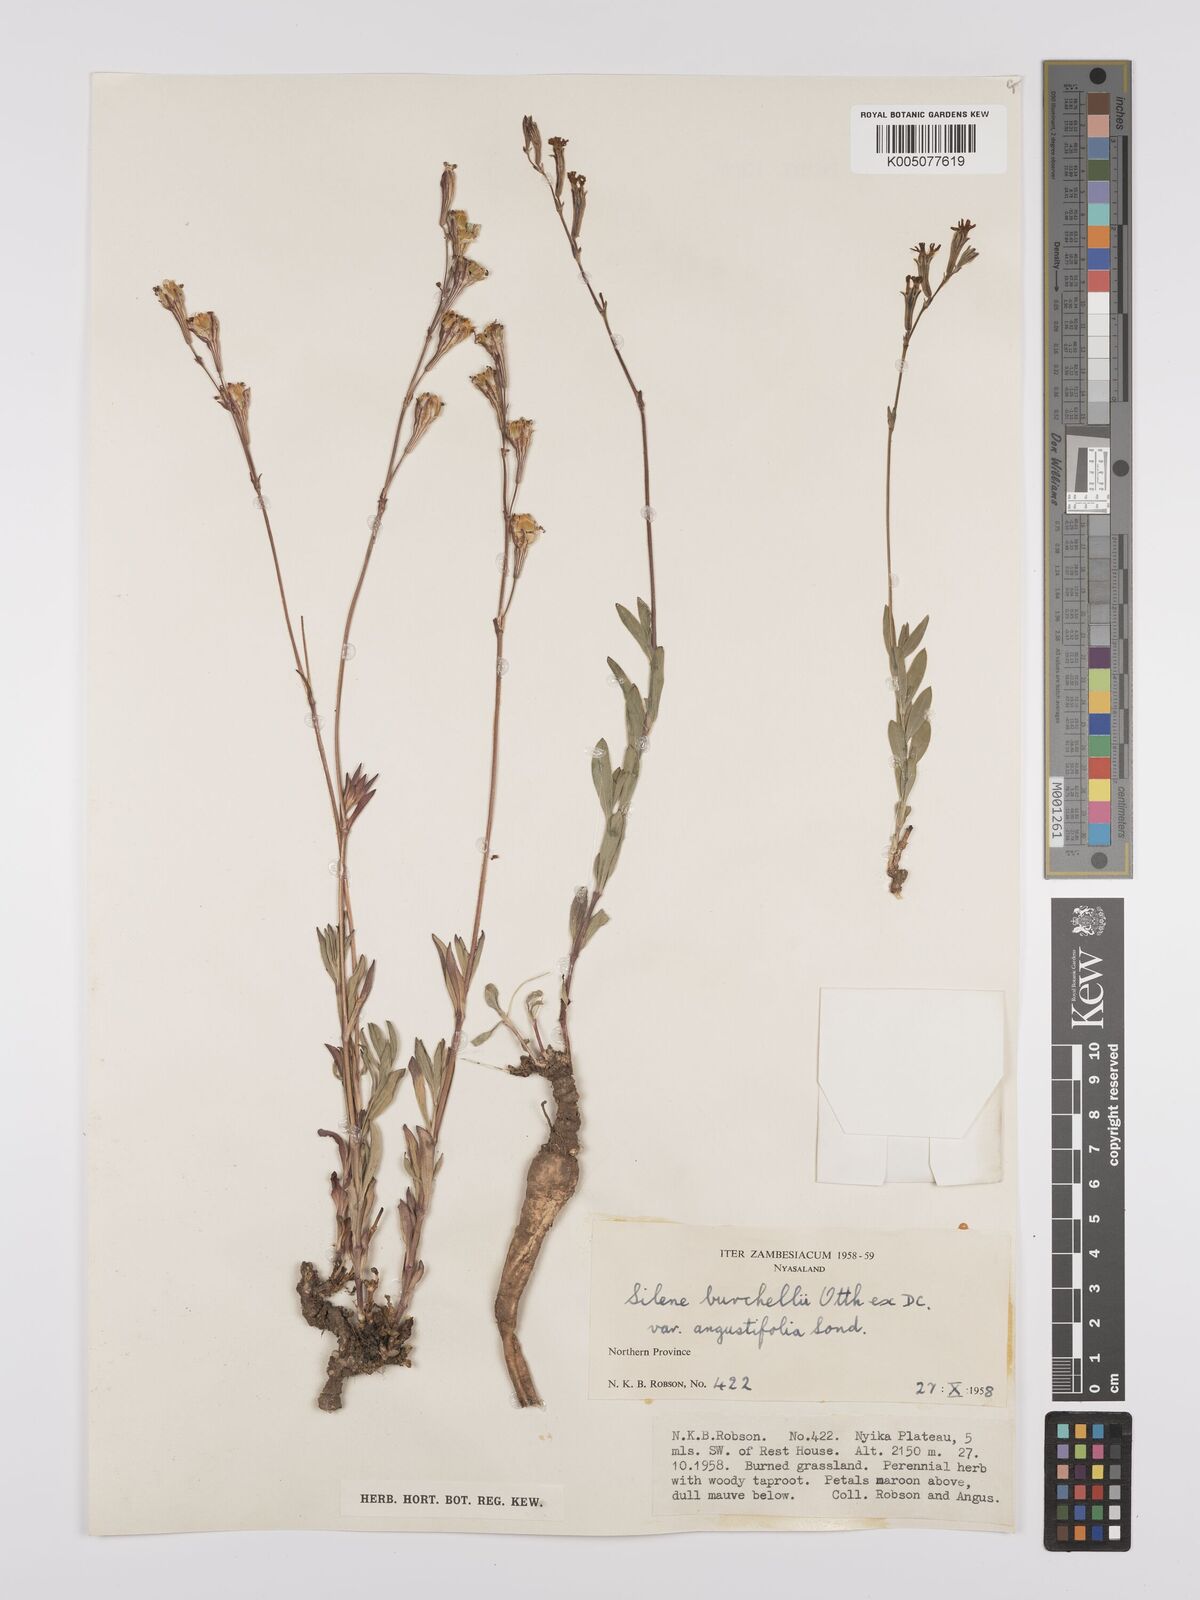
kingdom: Plantae
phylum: Tracheophyta
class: Magnoliopsida
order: Caryophyllales
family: Caryophyllaceae
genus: Silene
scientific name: Silene burchellii
